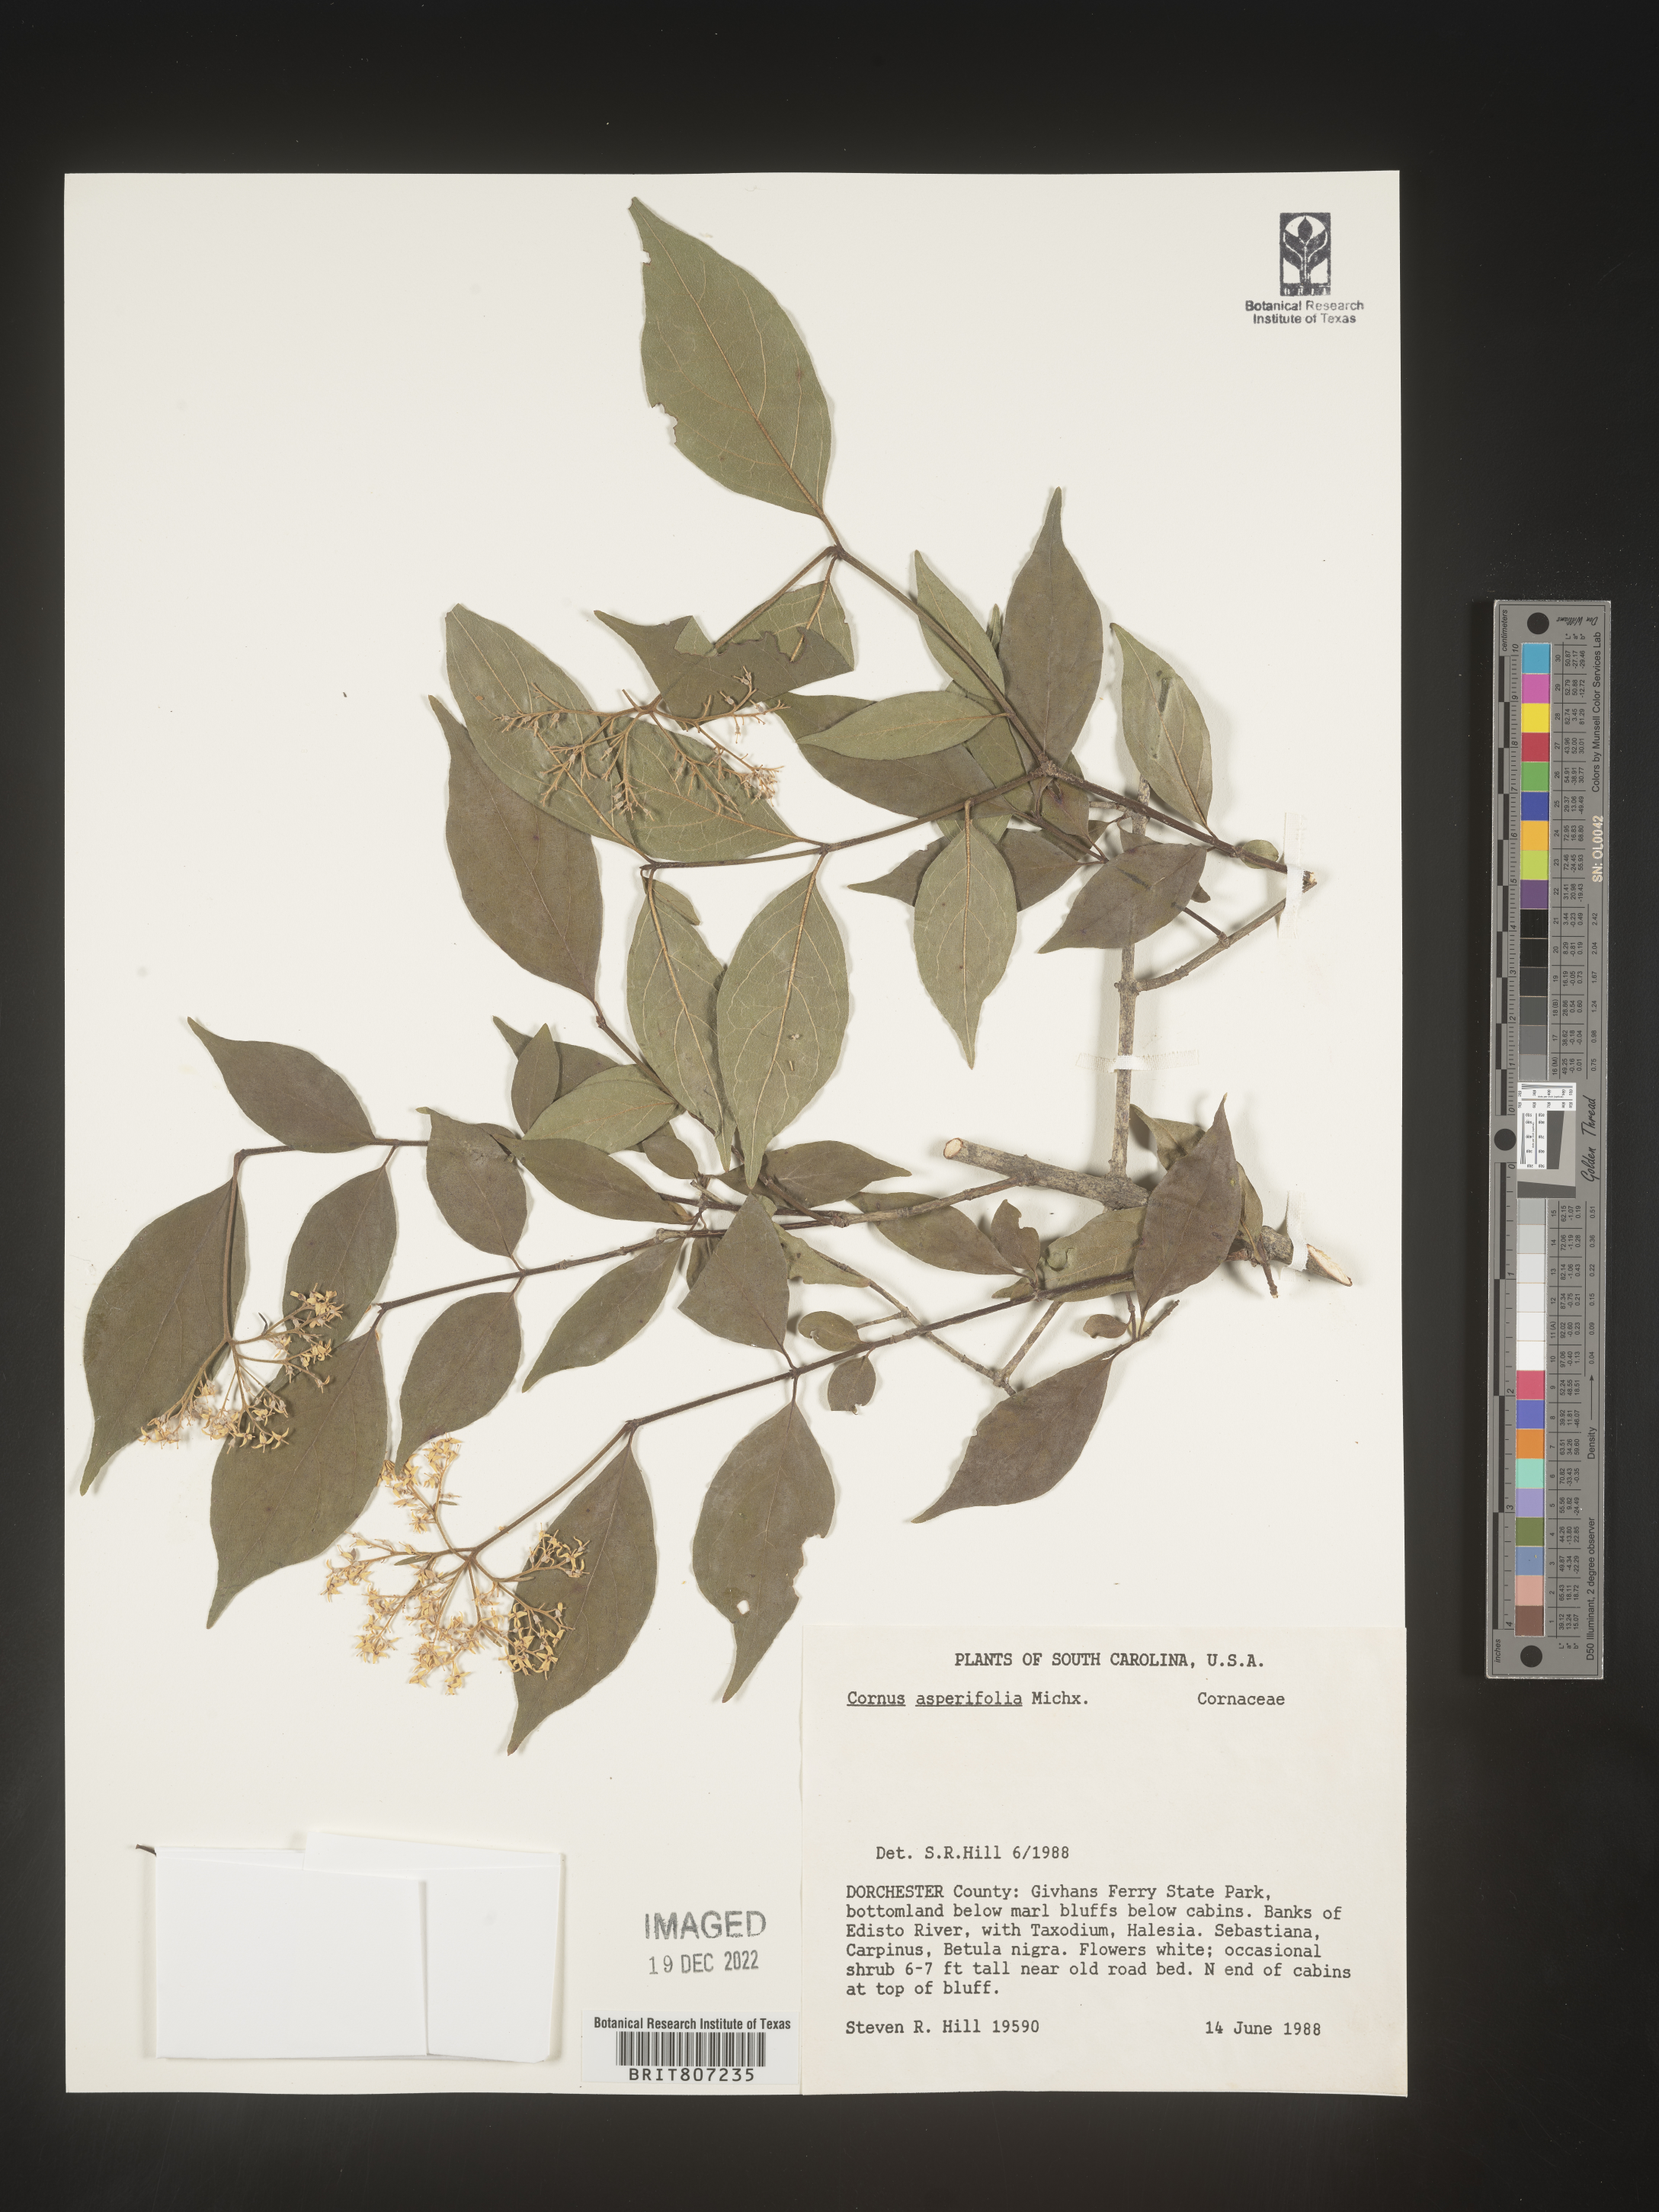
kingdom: Plantae
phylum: Tracheophyta
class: Magnoliopsida
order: Cornales
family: Cornaceae
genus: Cornus
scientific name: Cornus asperifolia
